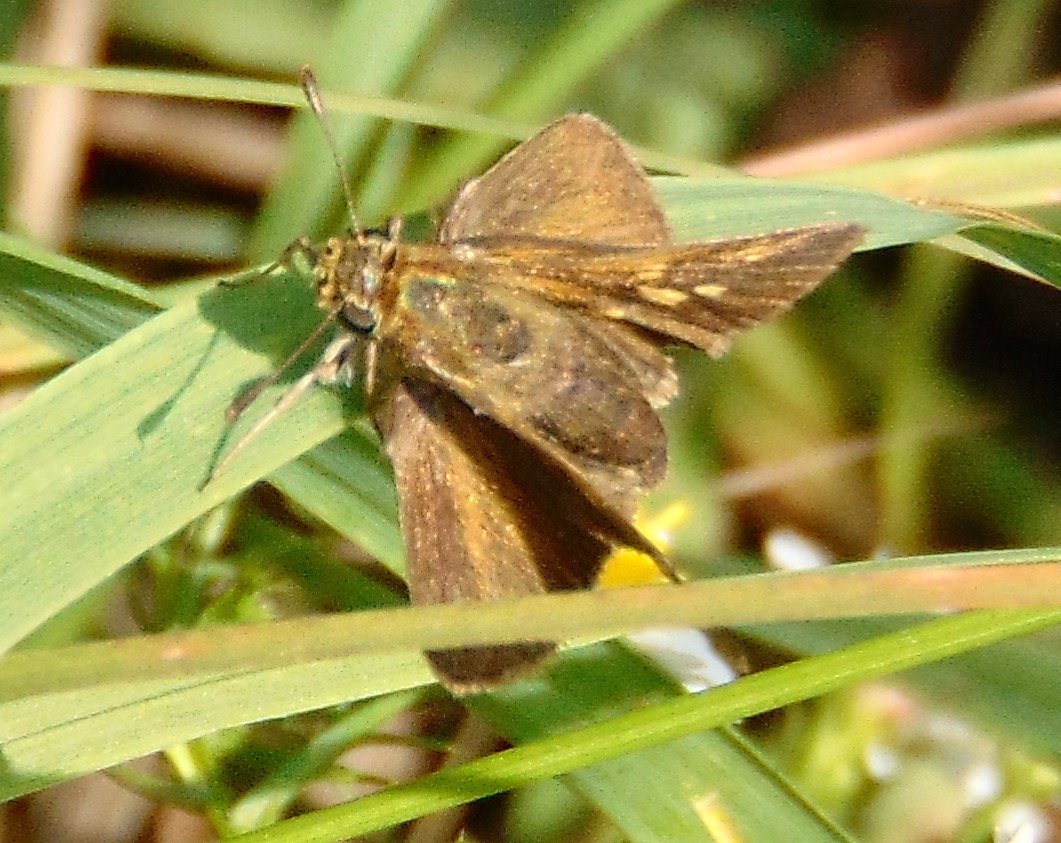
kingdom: Animalia
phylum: Arthropoda
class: Insecta
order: Lepidoptera
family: Hesperiidae
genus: Polites
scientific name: Polites egeremet
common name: Northern Broken-Dash
